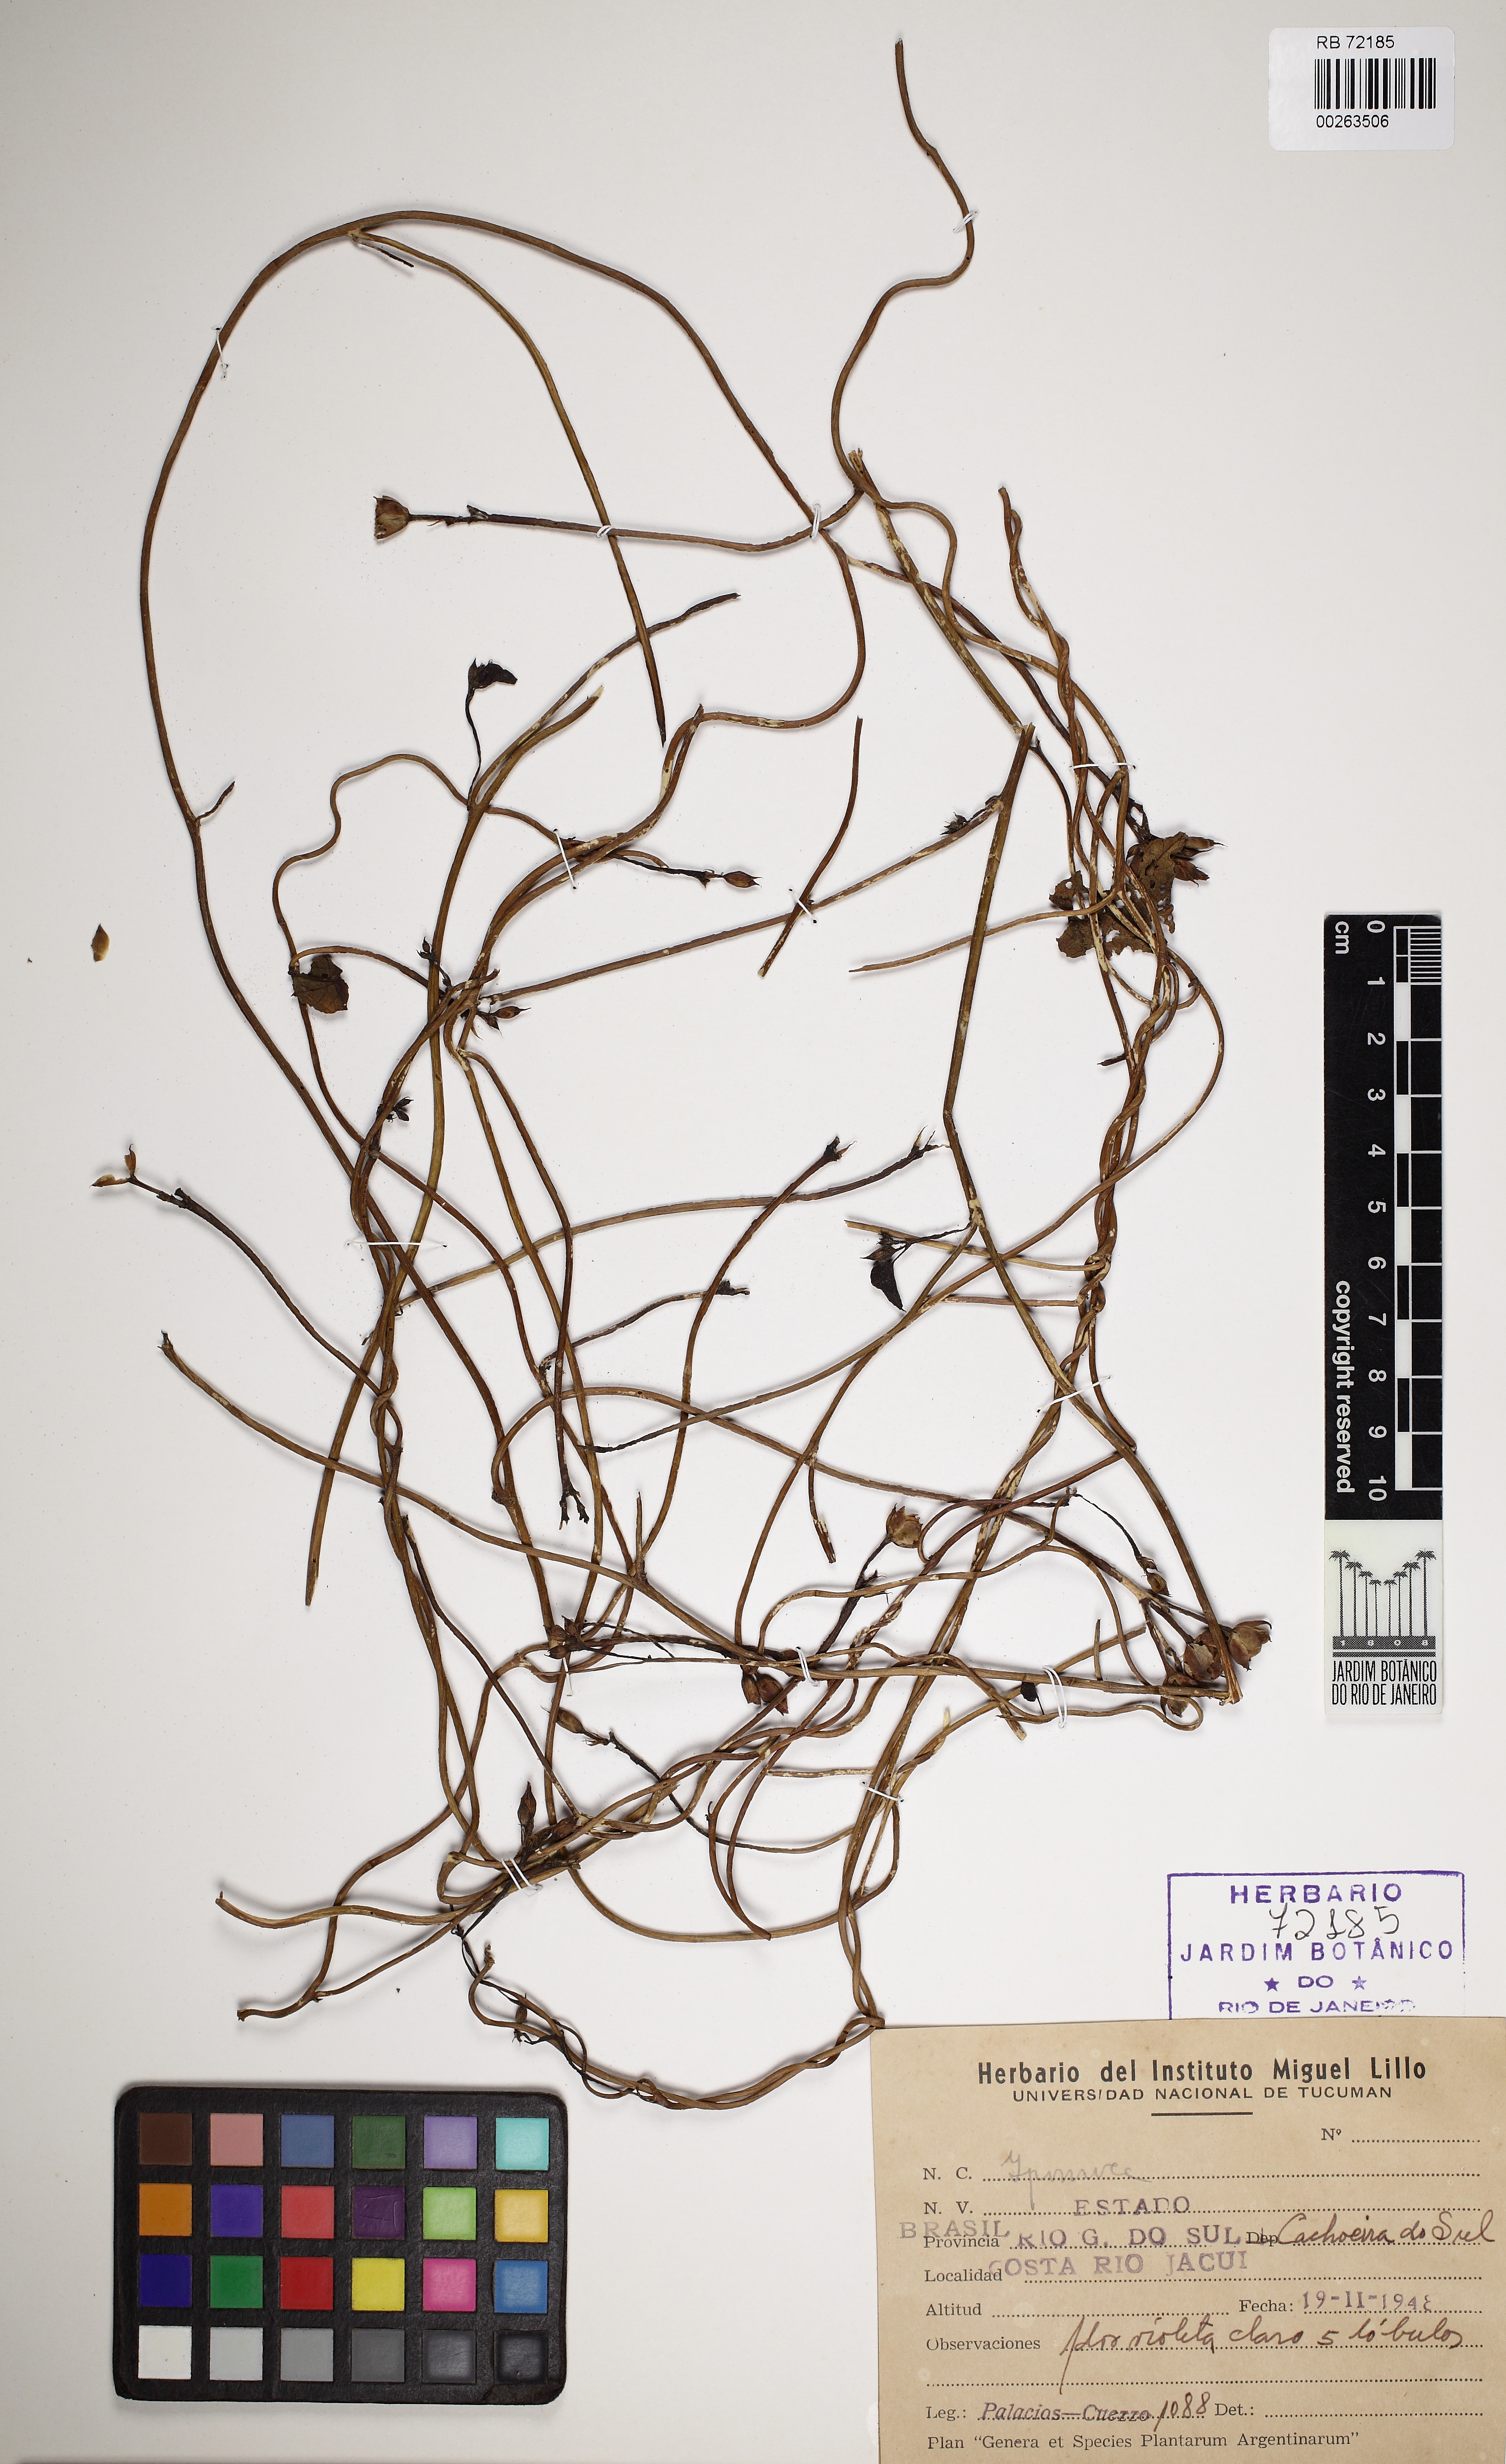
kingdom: Plantae
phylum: Tracheophyta
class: Magnoliopsida
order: Solanales
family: Convolvulaceae
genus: Ipomoea
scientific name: Ipomoea triloba
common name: Little-bell
